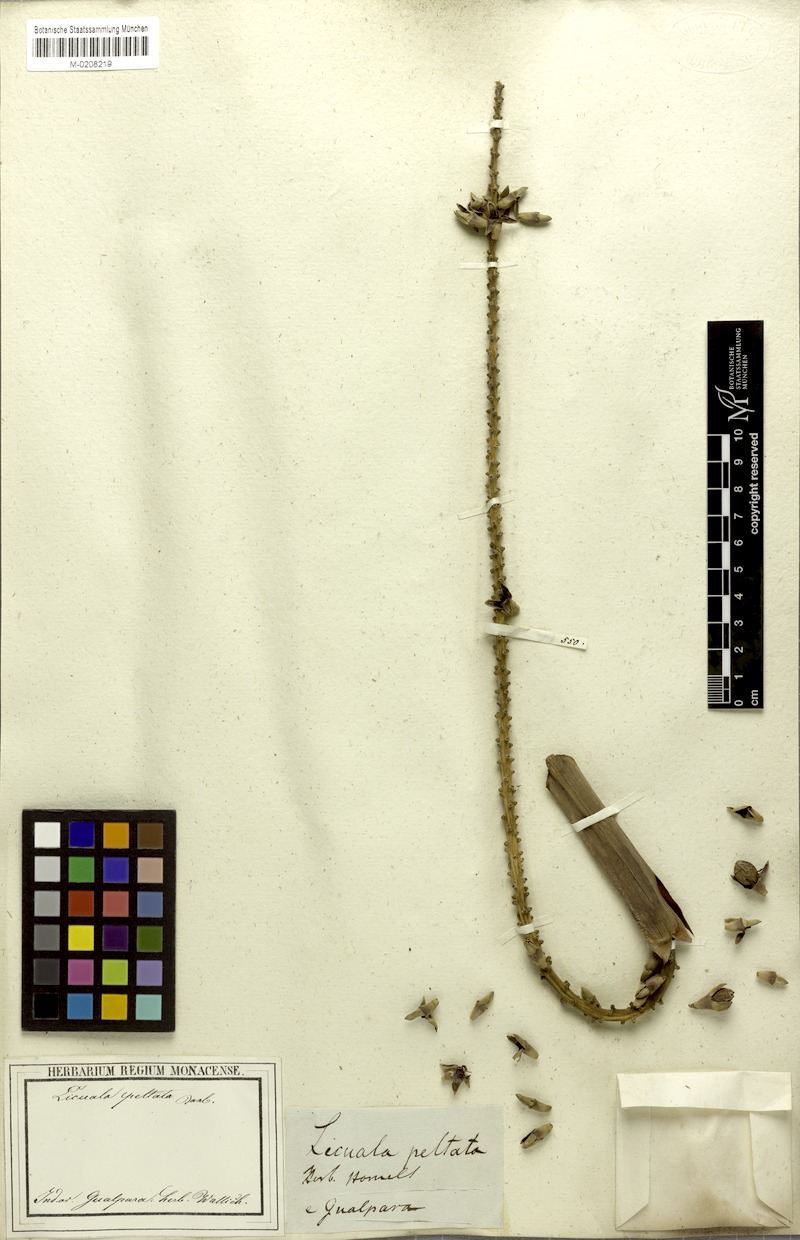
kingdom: Plantae
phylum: Tracheophyta
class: Liliopsida
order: Arecales
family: Arecaceae
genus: Licuala
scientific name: Licuala peltata
